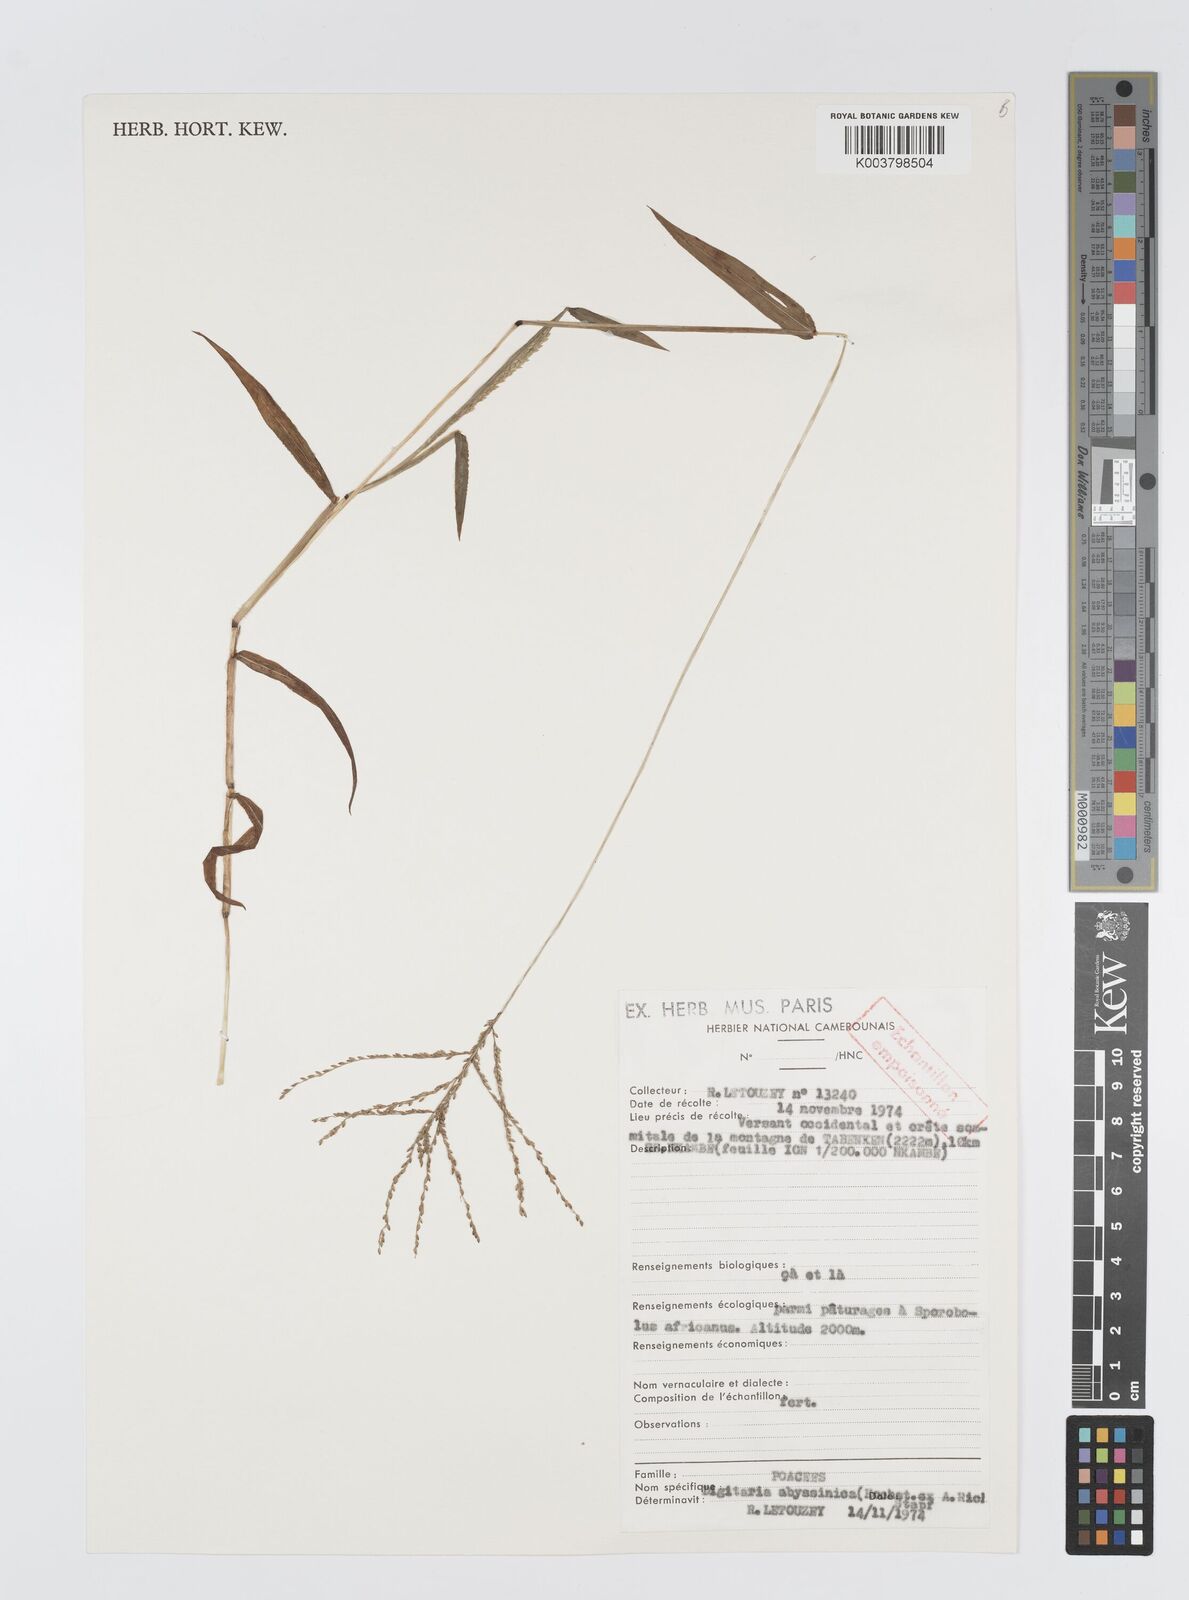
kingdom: Plantae
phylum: Tracheophyta
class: Liliopsida
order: Poales
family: Poaceae
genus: Digitaria
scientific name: Digitaria abyssinica
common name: African couchgrass
